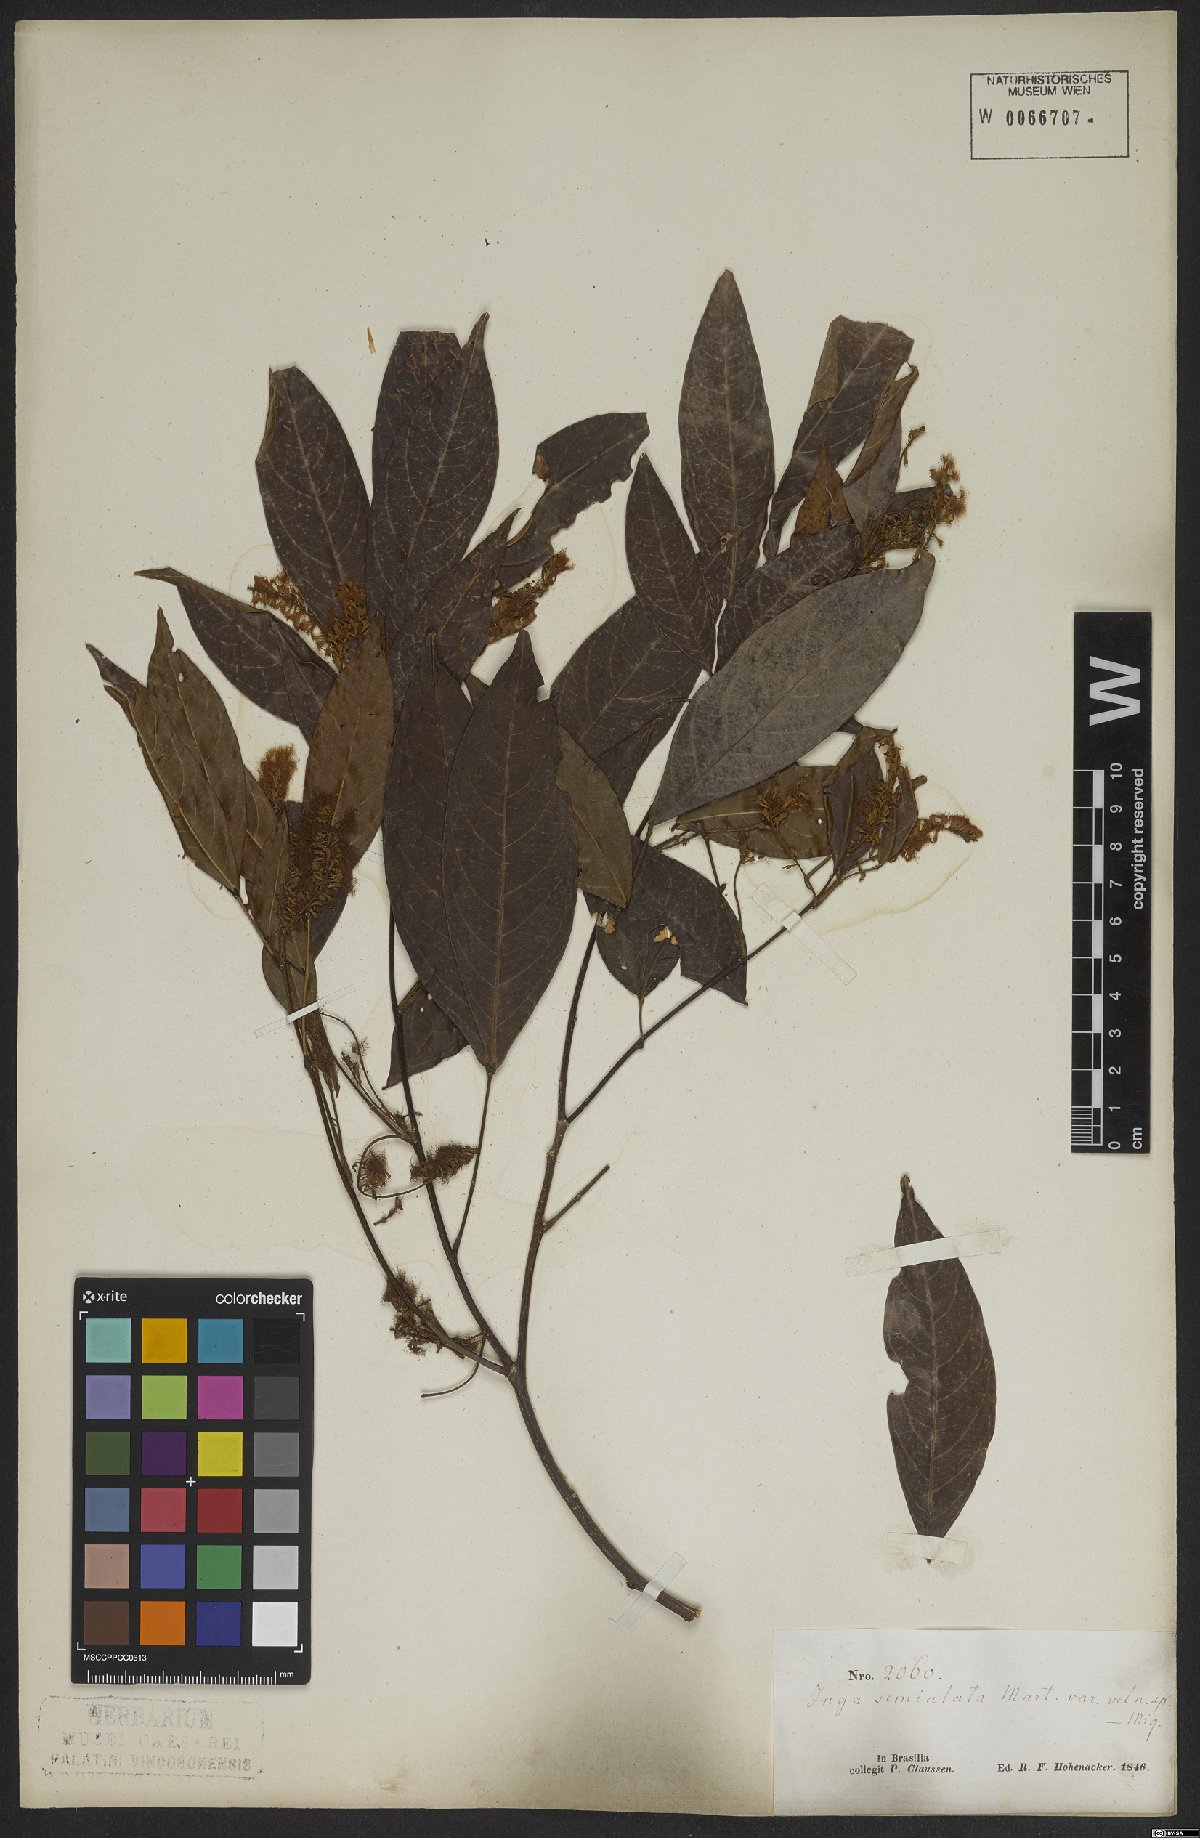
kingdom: Plantae
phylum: Tracheophyta
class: Magnoliopsida
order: Fabales
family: Fabaceae
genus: Inga
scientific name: Inga marginata
